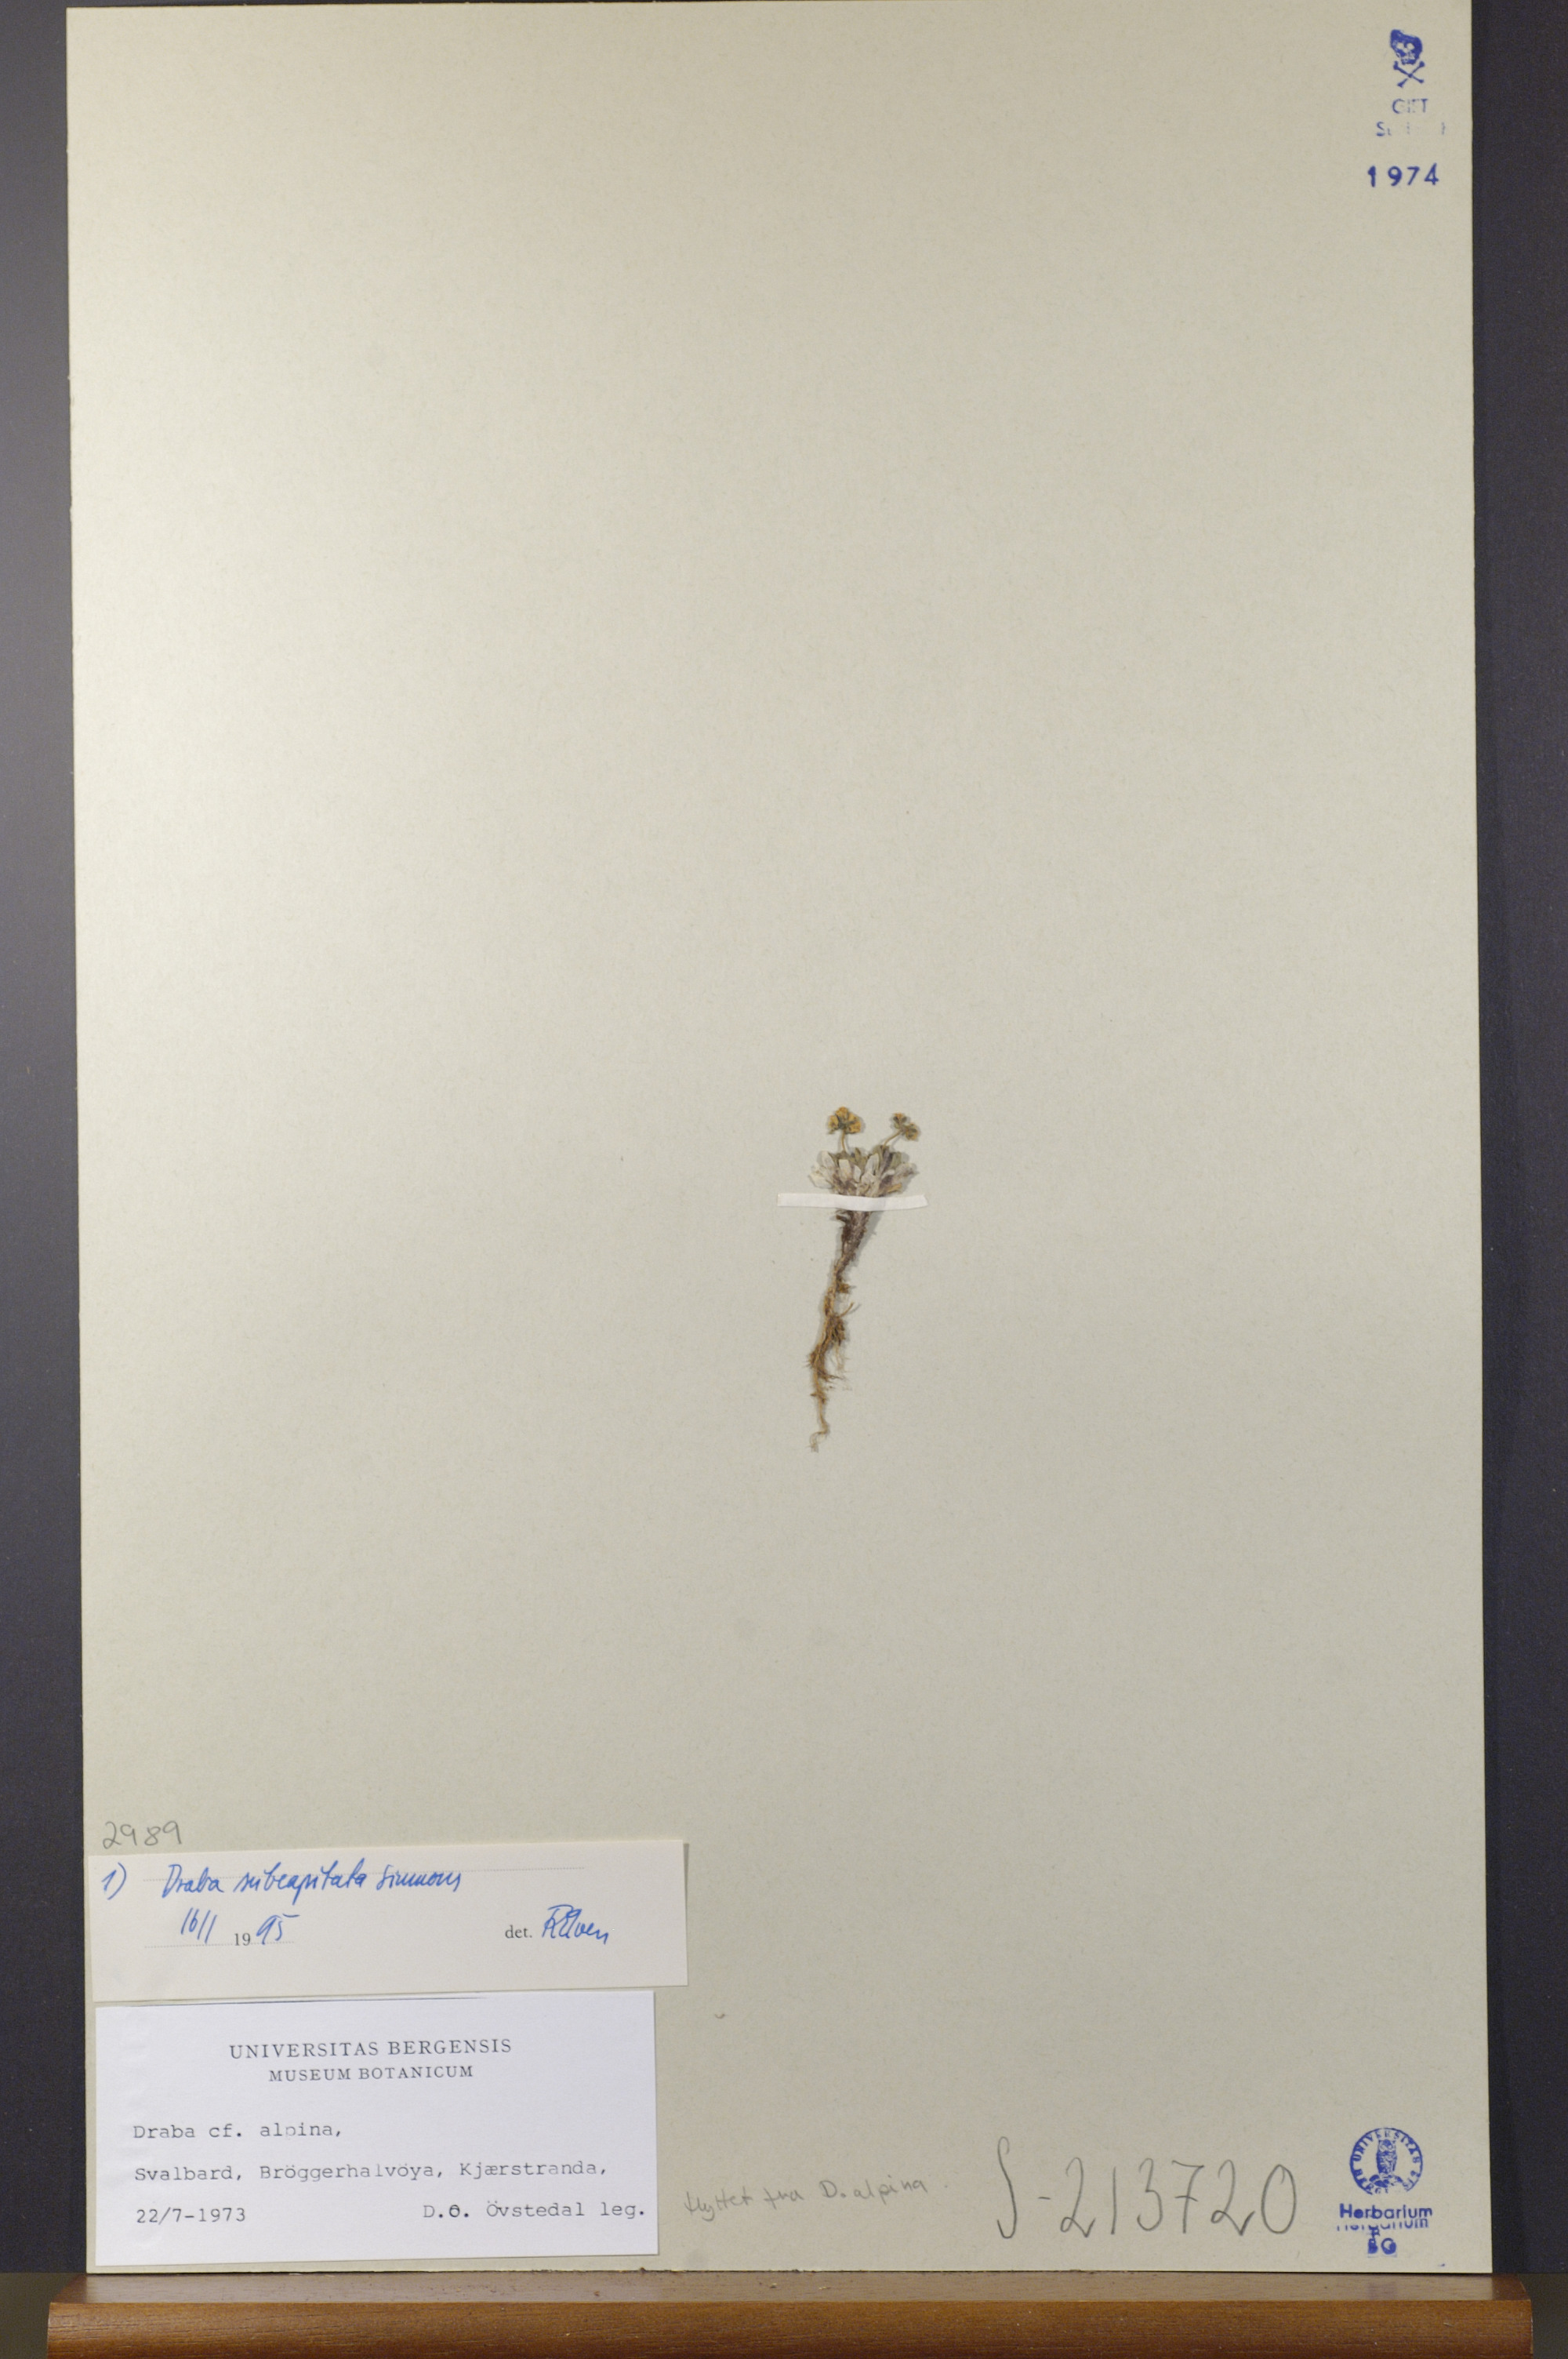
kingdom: Plantae
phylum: Tracheophyta
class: Magnoliopsida
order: Brassicales
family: Brassicaceae
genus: Draba
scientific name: Draba subcapitata
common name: Ellesmere island draba
